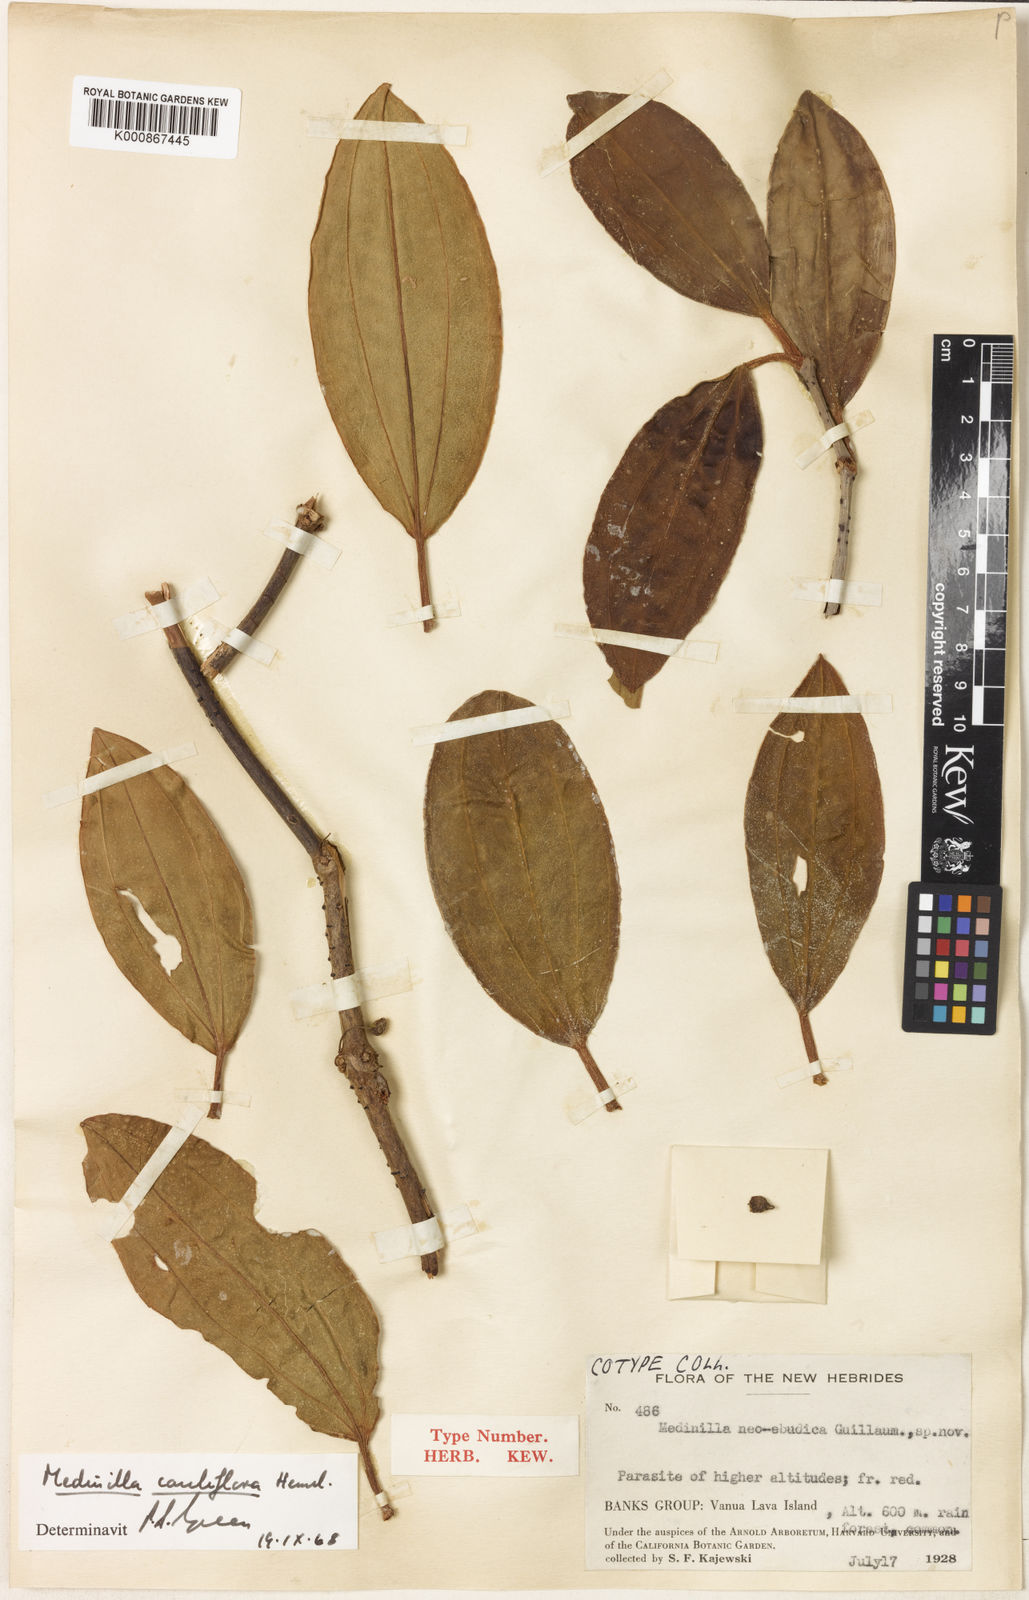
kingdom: Plantae
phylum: Tracheophyta
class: Magnoliopsida
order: Myrtales
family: Melastomataceae
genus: Medinilla
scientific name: Medinilla cauliflora
